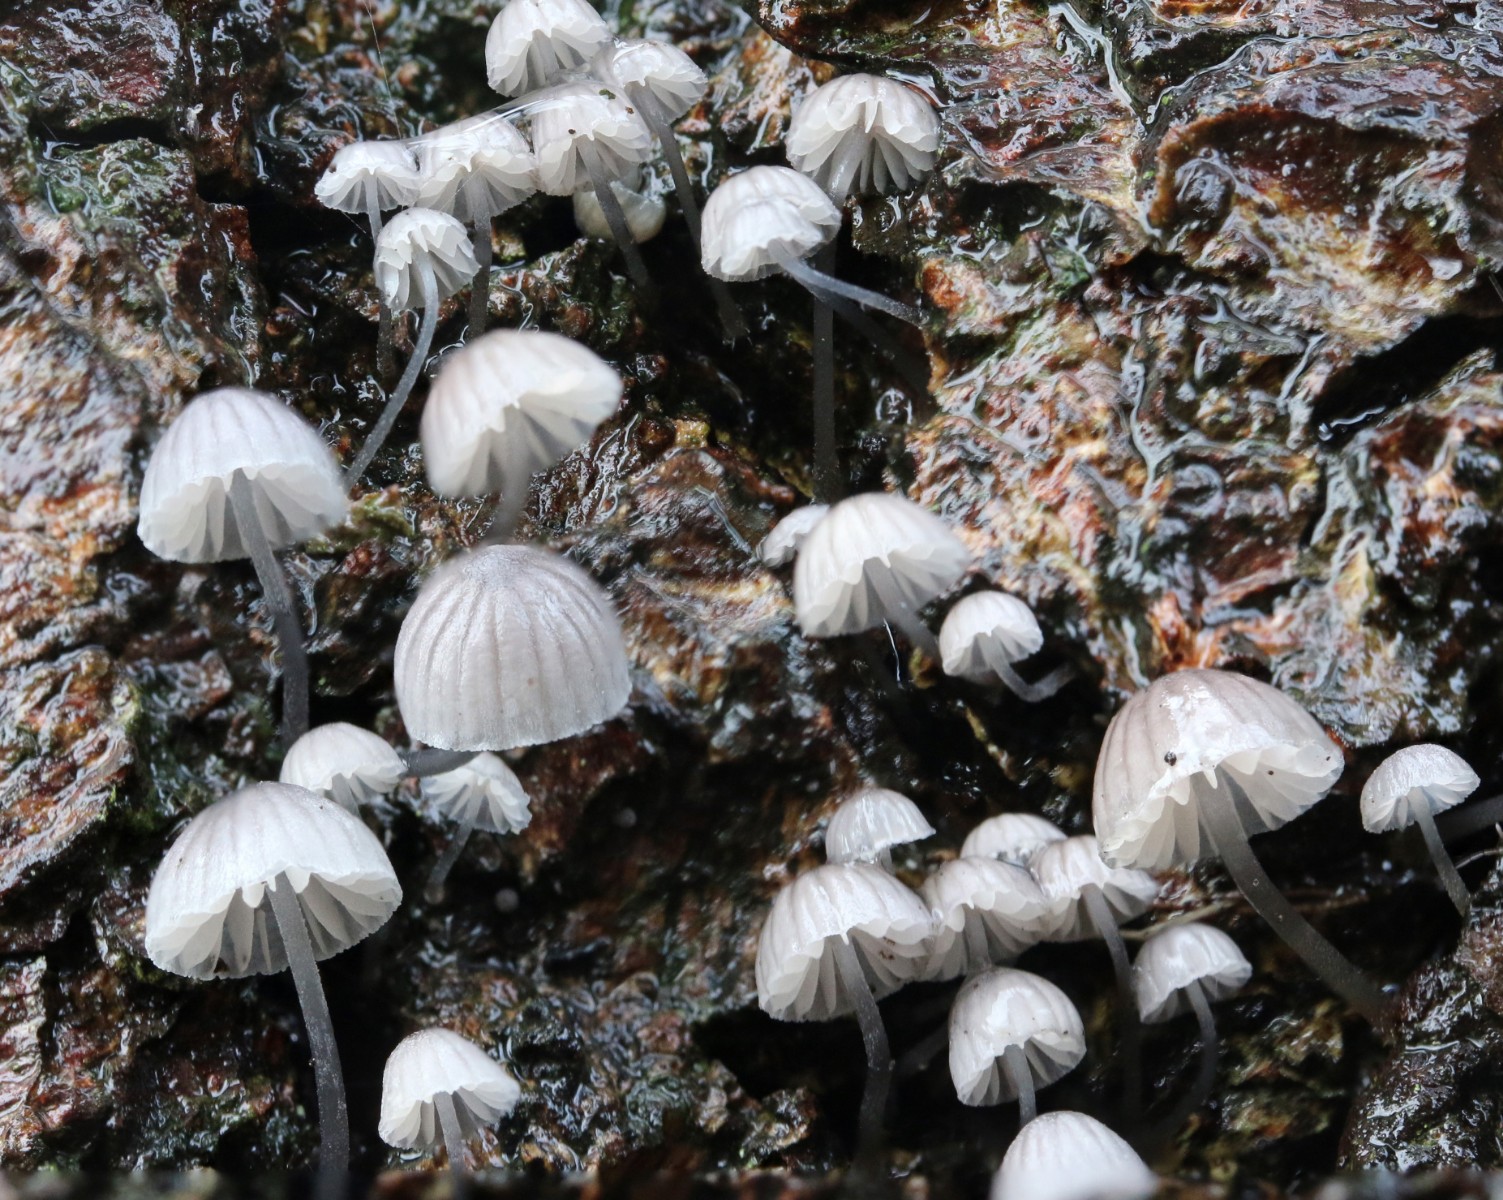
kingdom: Fungi
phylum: Basidiomycota
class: Agaricomycetes
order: Agaricales
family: Mycenaceae
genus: Mycena
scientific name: Mycena pseudocorticola
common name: gråblå bark-huesvamp
